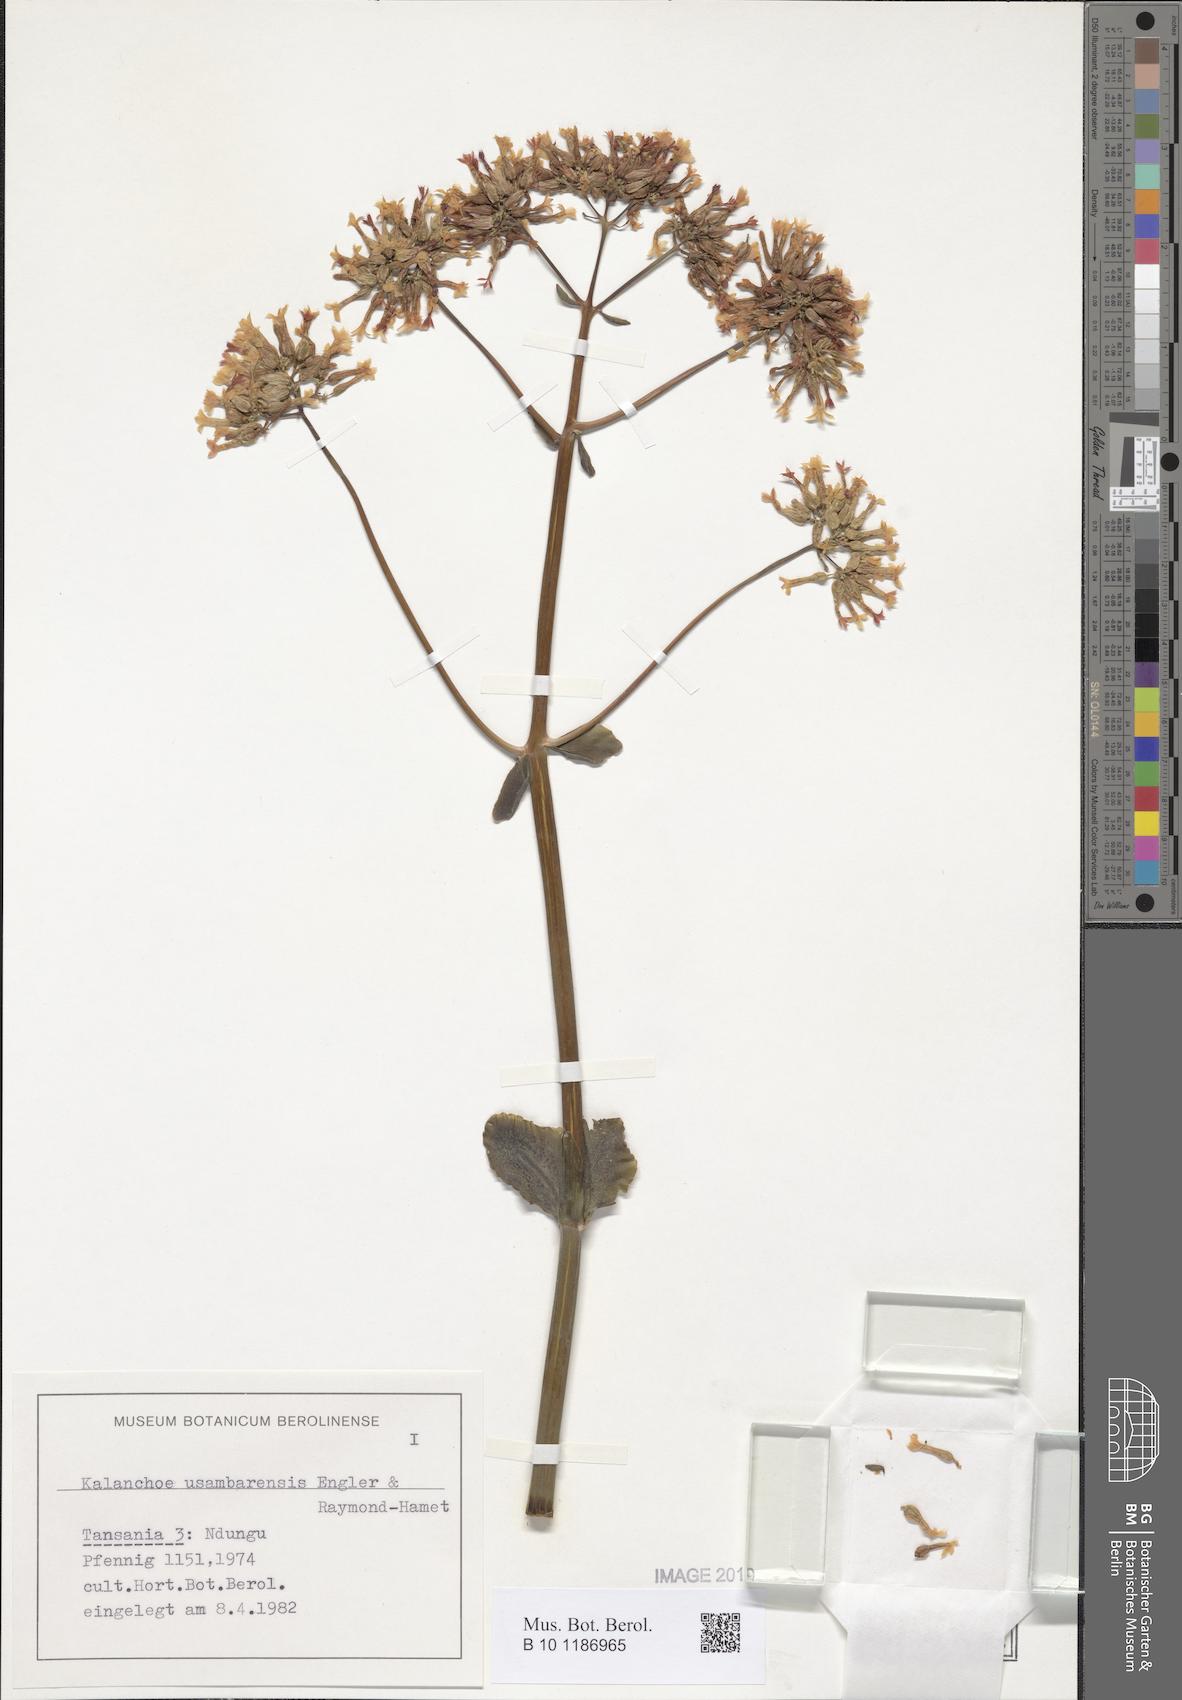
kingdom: Plantae
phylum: Tracheophyta
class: Magnoliopsida
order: Saxifragales
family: Crassulaceae
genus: Kalanchoe
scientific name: Kalanchoe usambarensis
